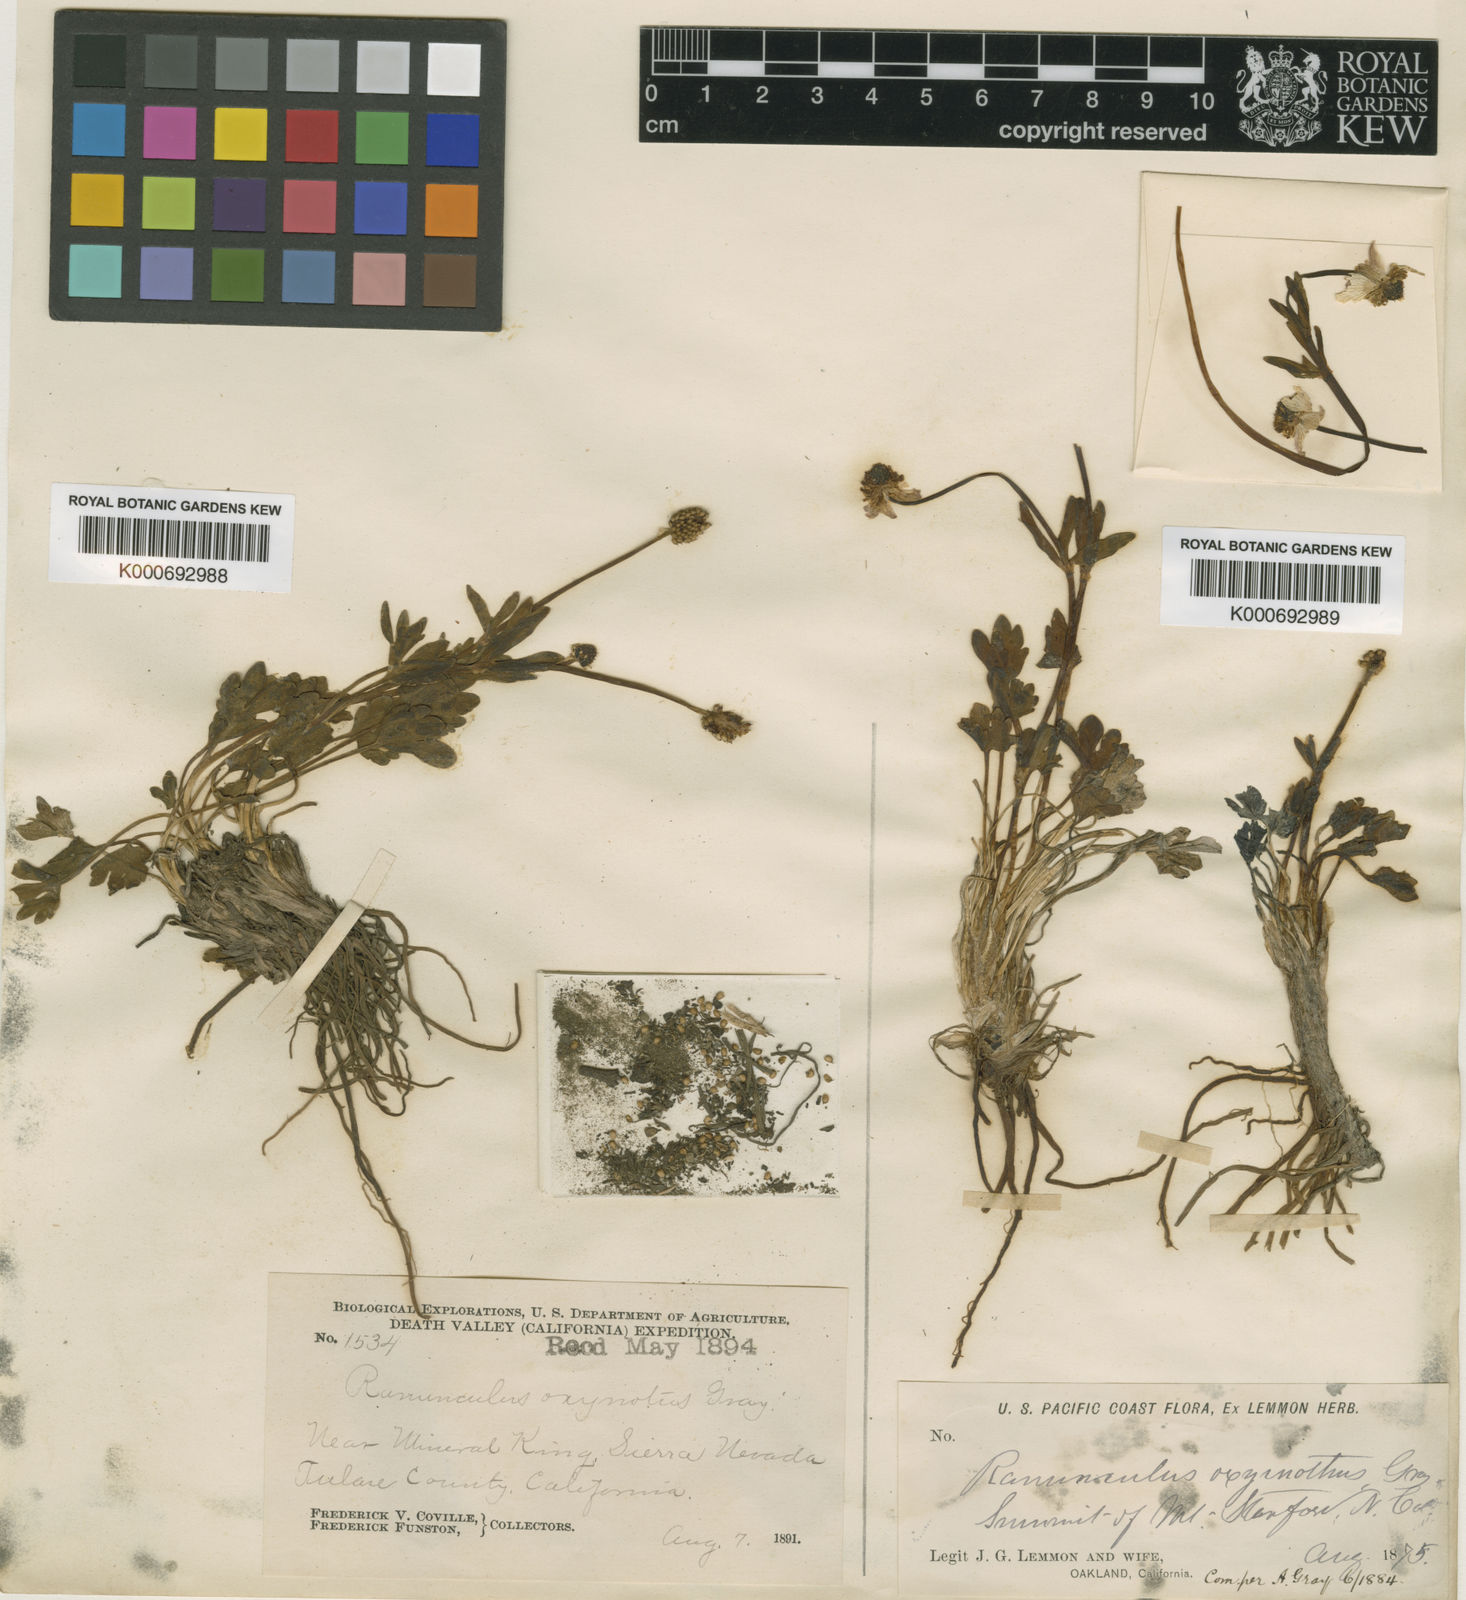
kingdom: Plantae
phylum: Tracheophyta
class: Magnoliopsida
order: Ranunculales
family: Ranunculaceae
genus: Ranunculus
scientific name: Ranunculus eschscholtzii
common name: Eschscholtz's buttercup
